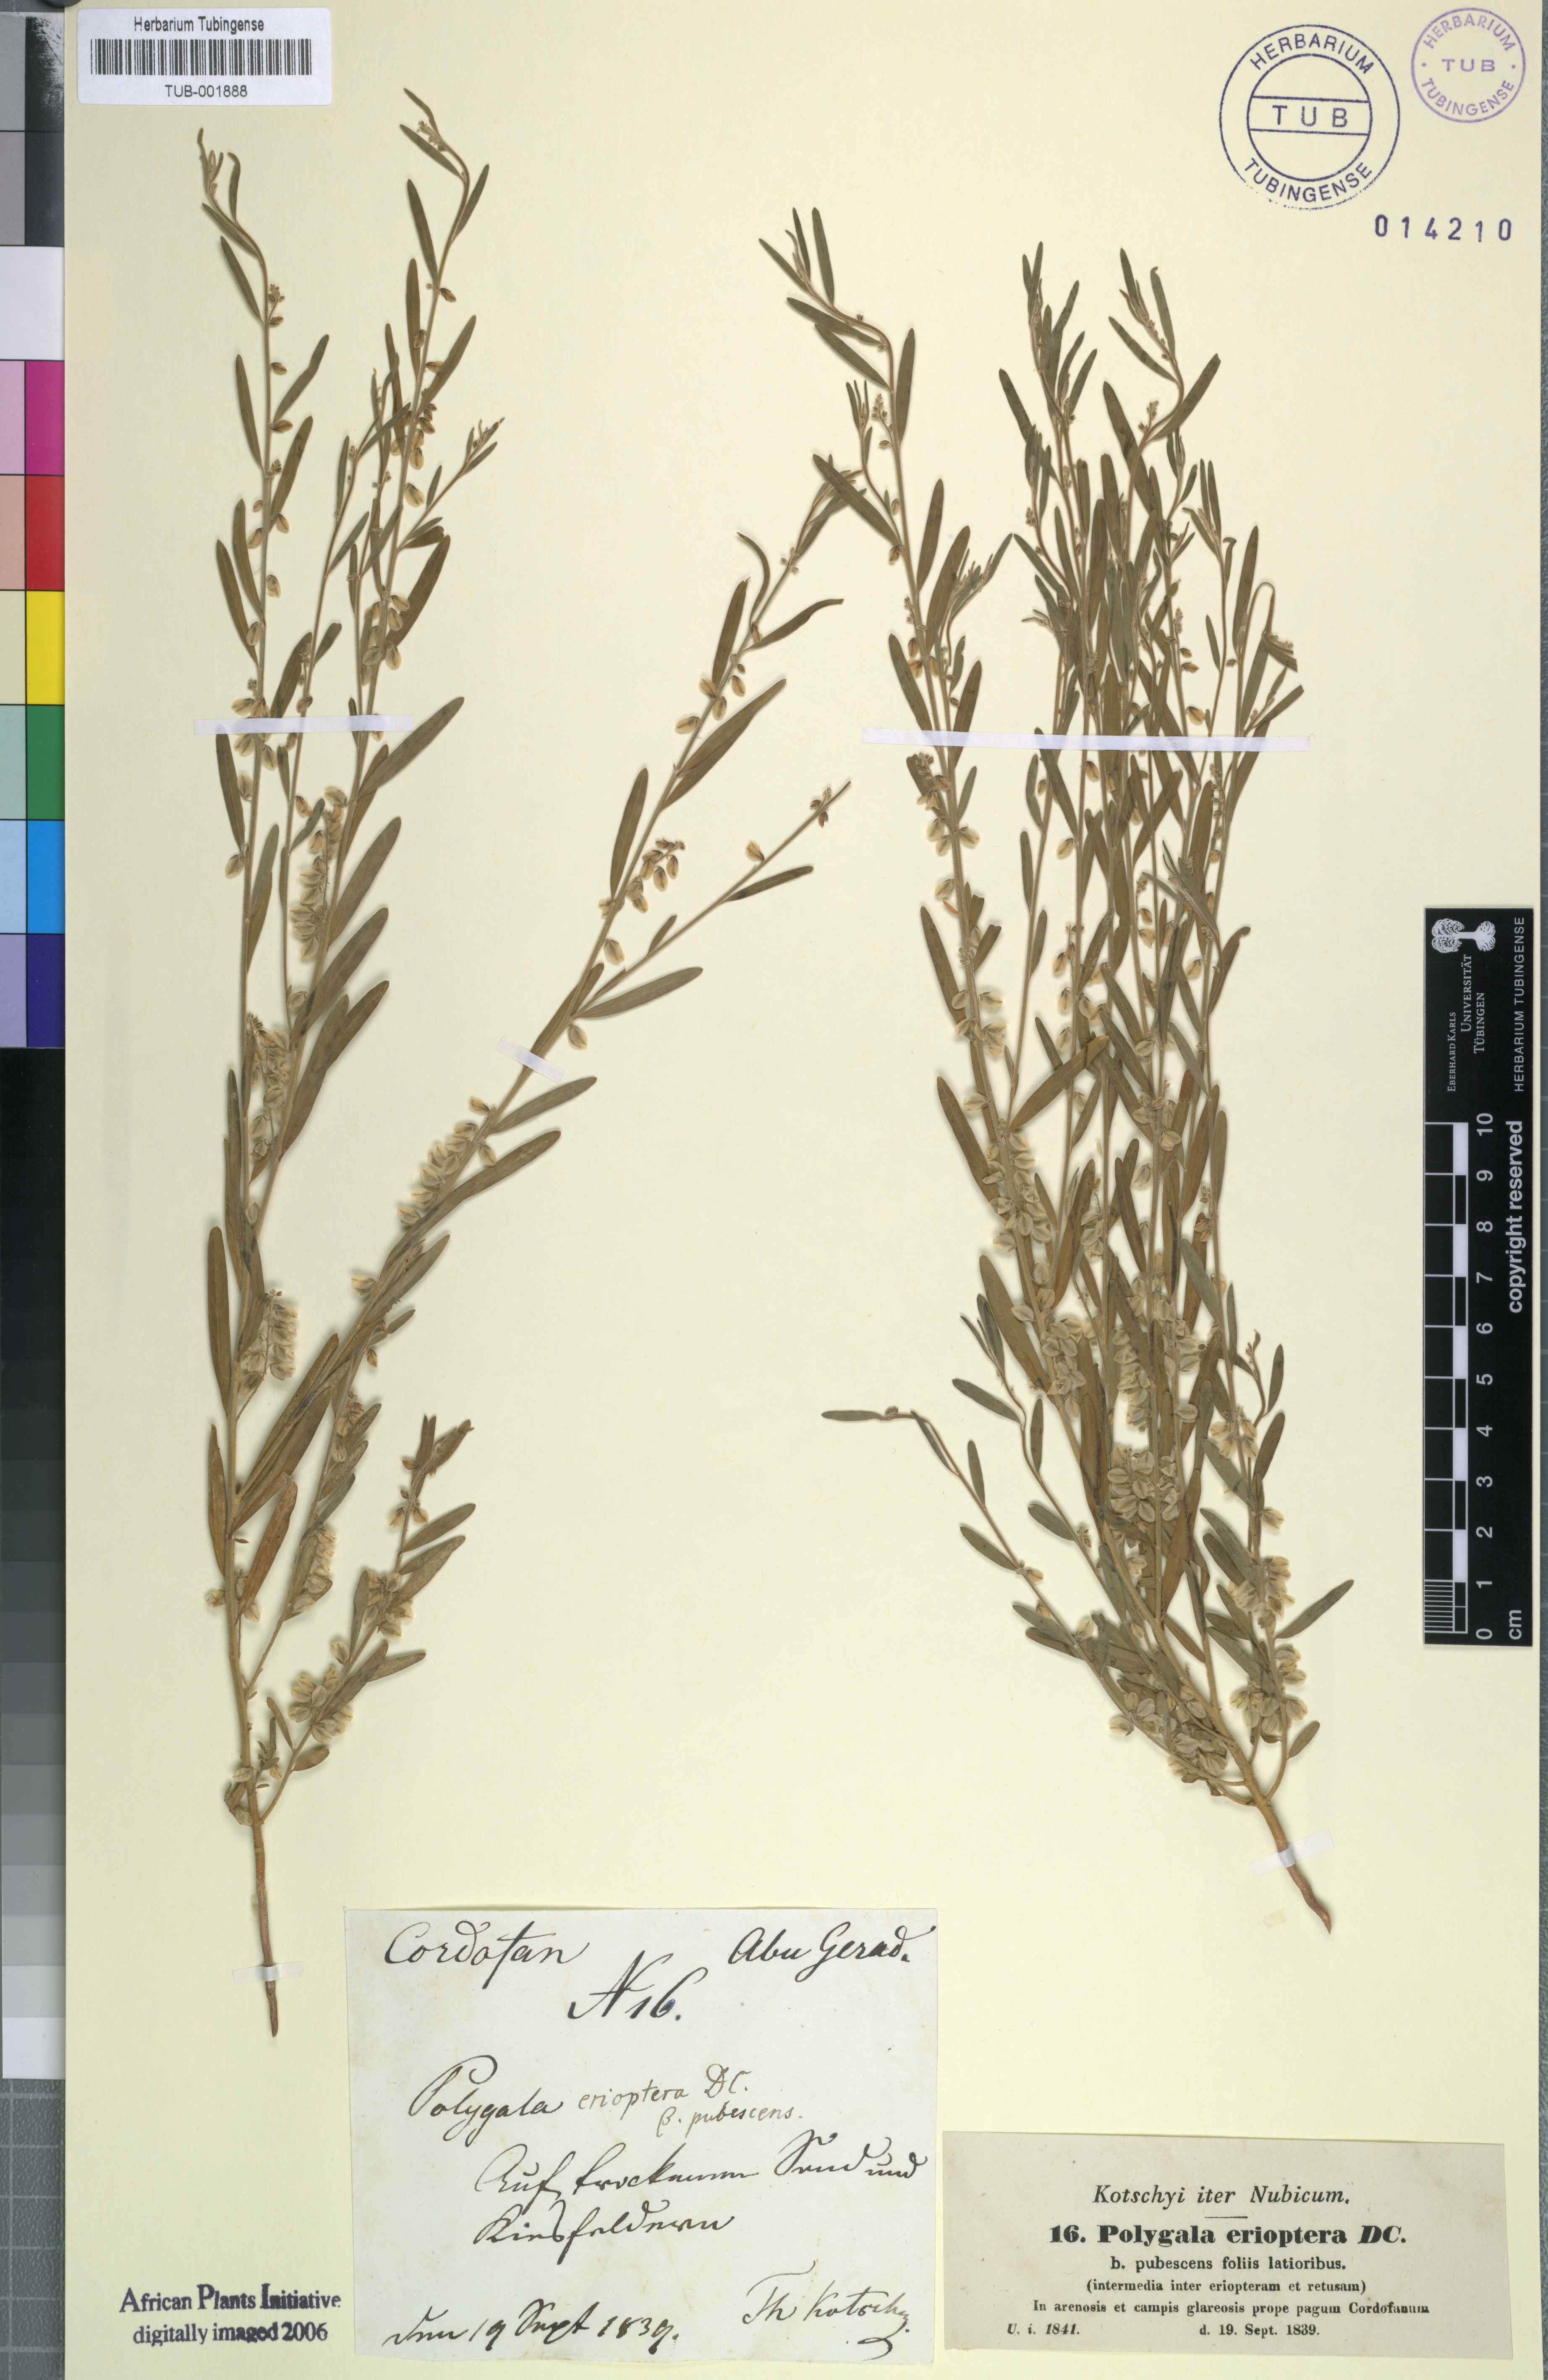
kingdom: Plantae
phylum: Tracheophyta
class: Magnoliopsida
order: Fabales
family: Polygalaceae
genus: Polygala
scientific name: Polygala erioptera
